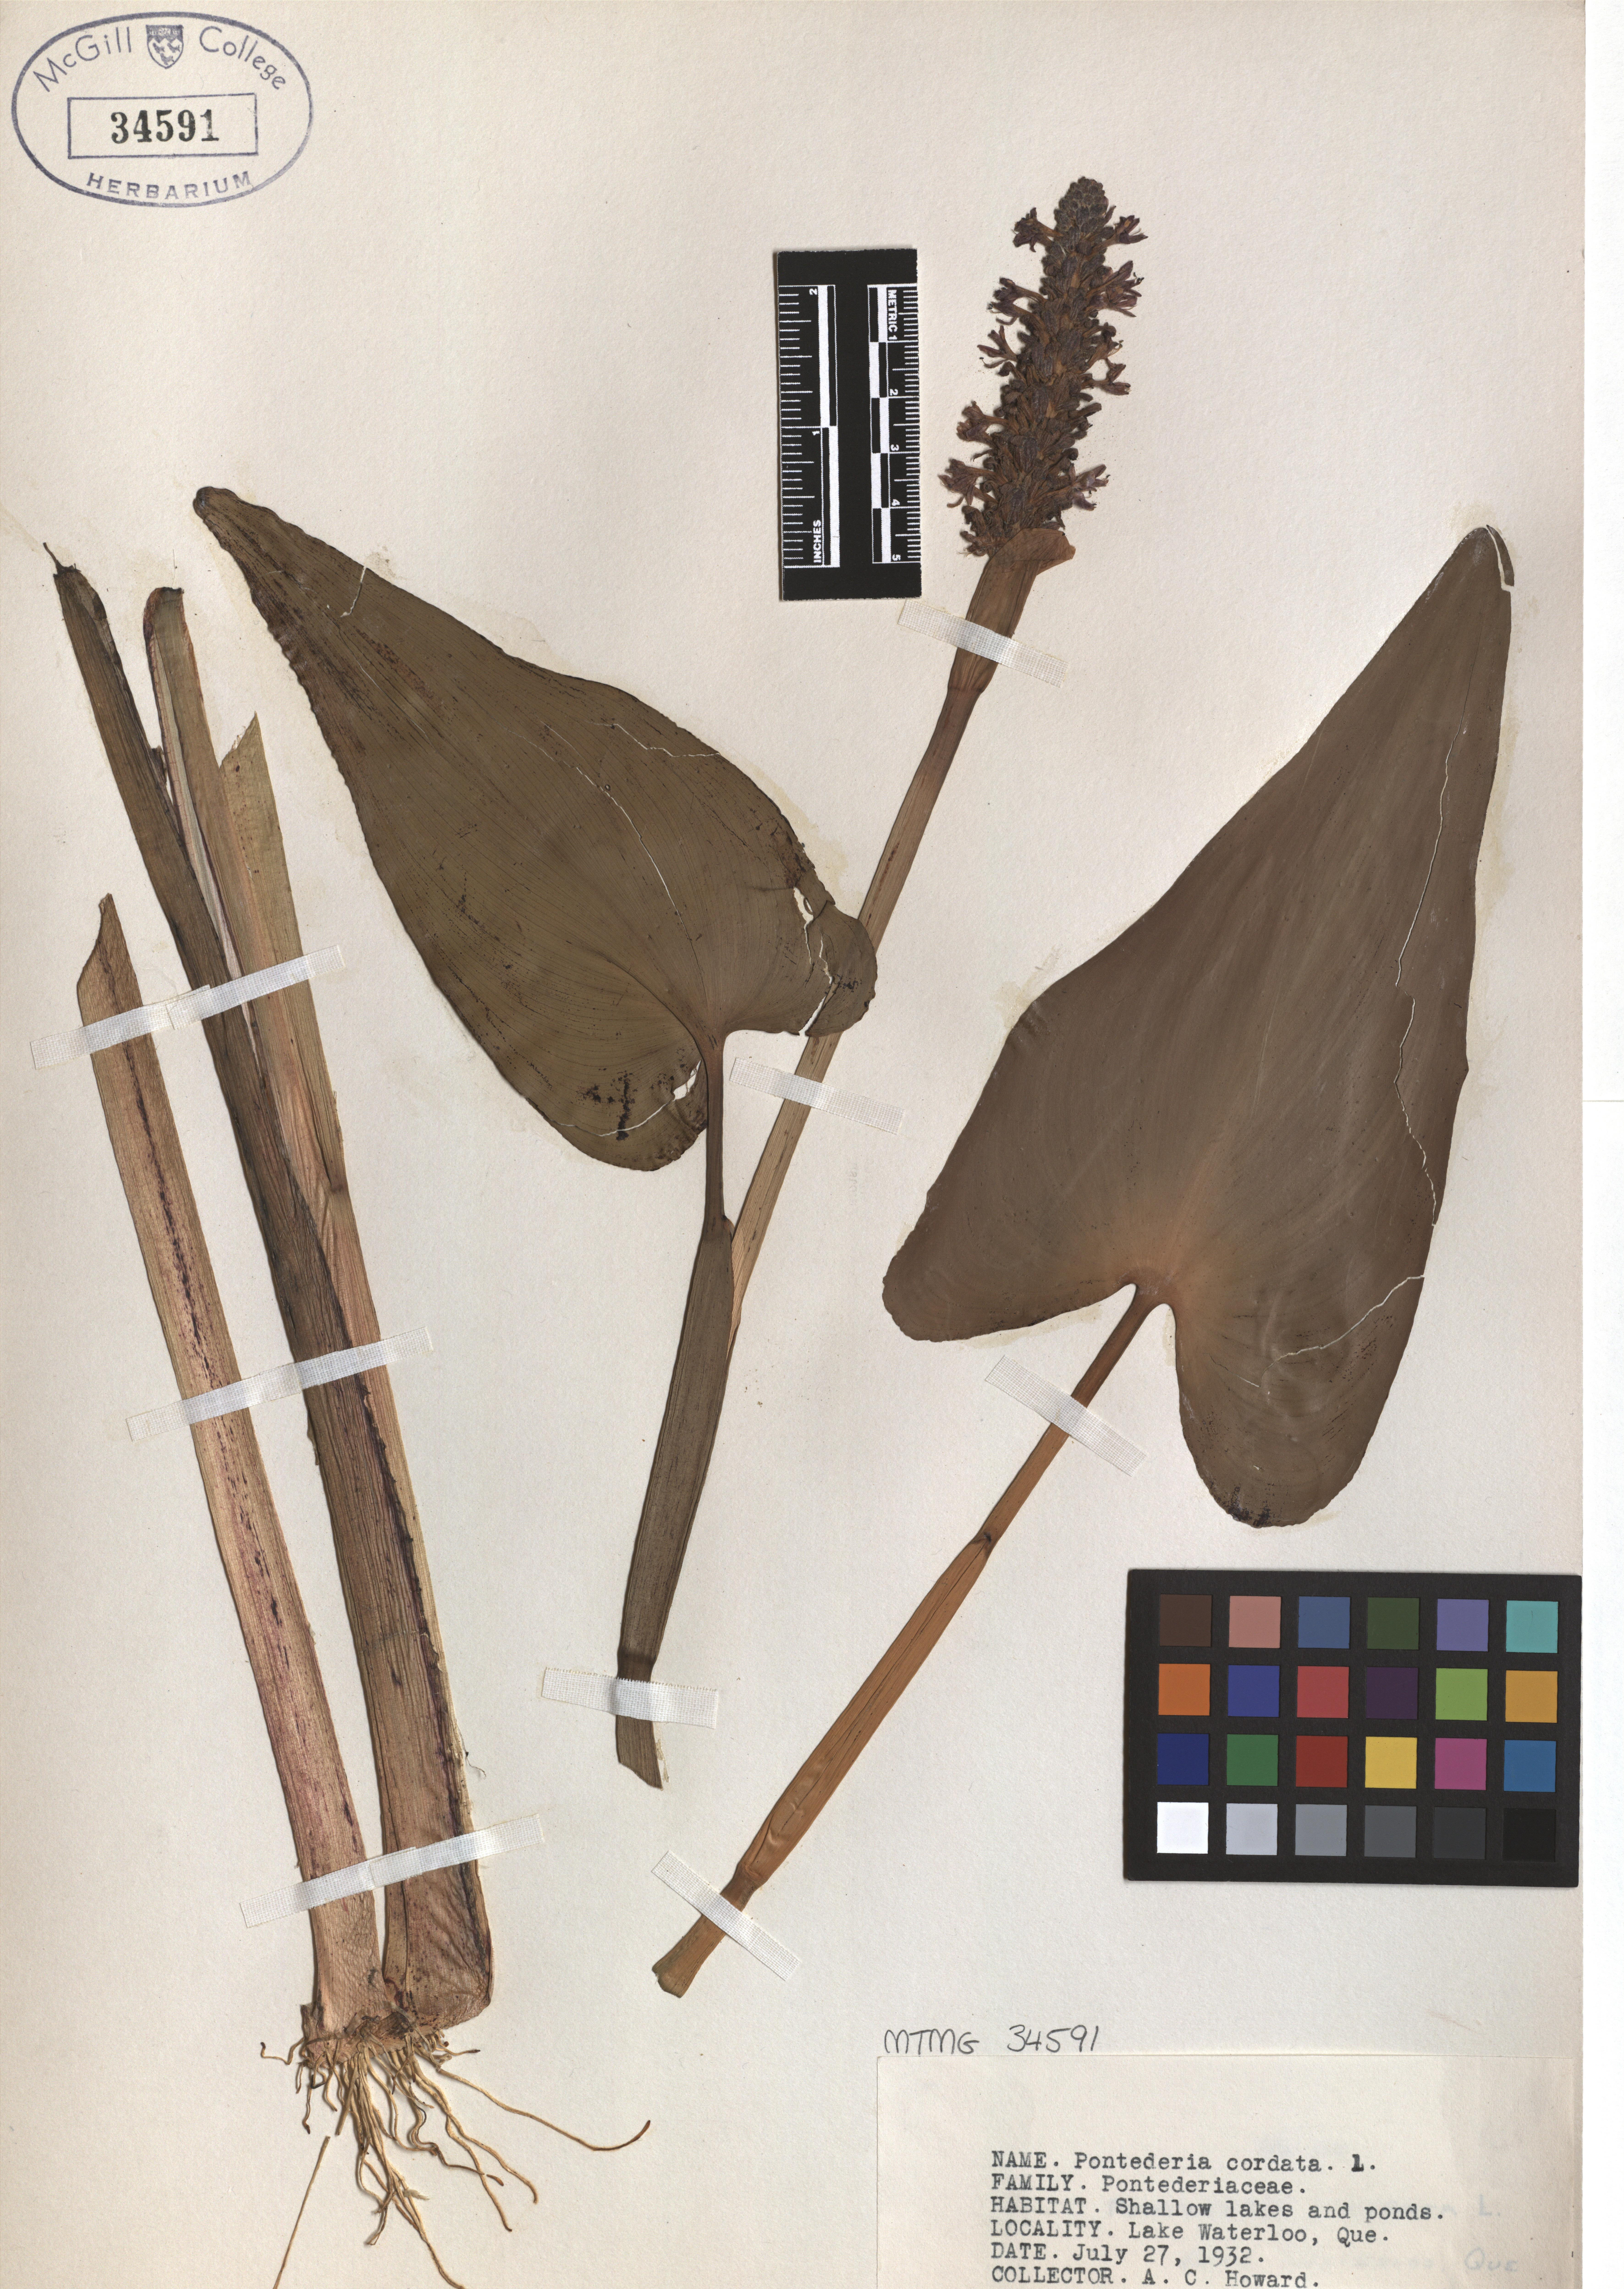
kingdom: Plantae
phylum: Tracheophyta
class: Liliopsida
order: Commelinales
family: Pontederiaceae
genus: Pontederia
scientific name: Pontederia cordata
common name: Pickerelweed
